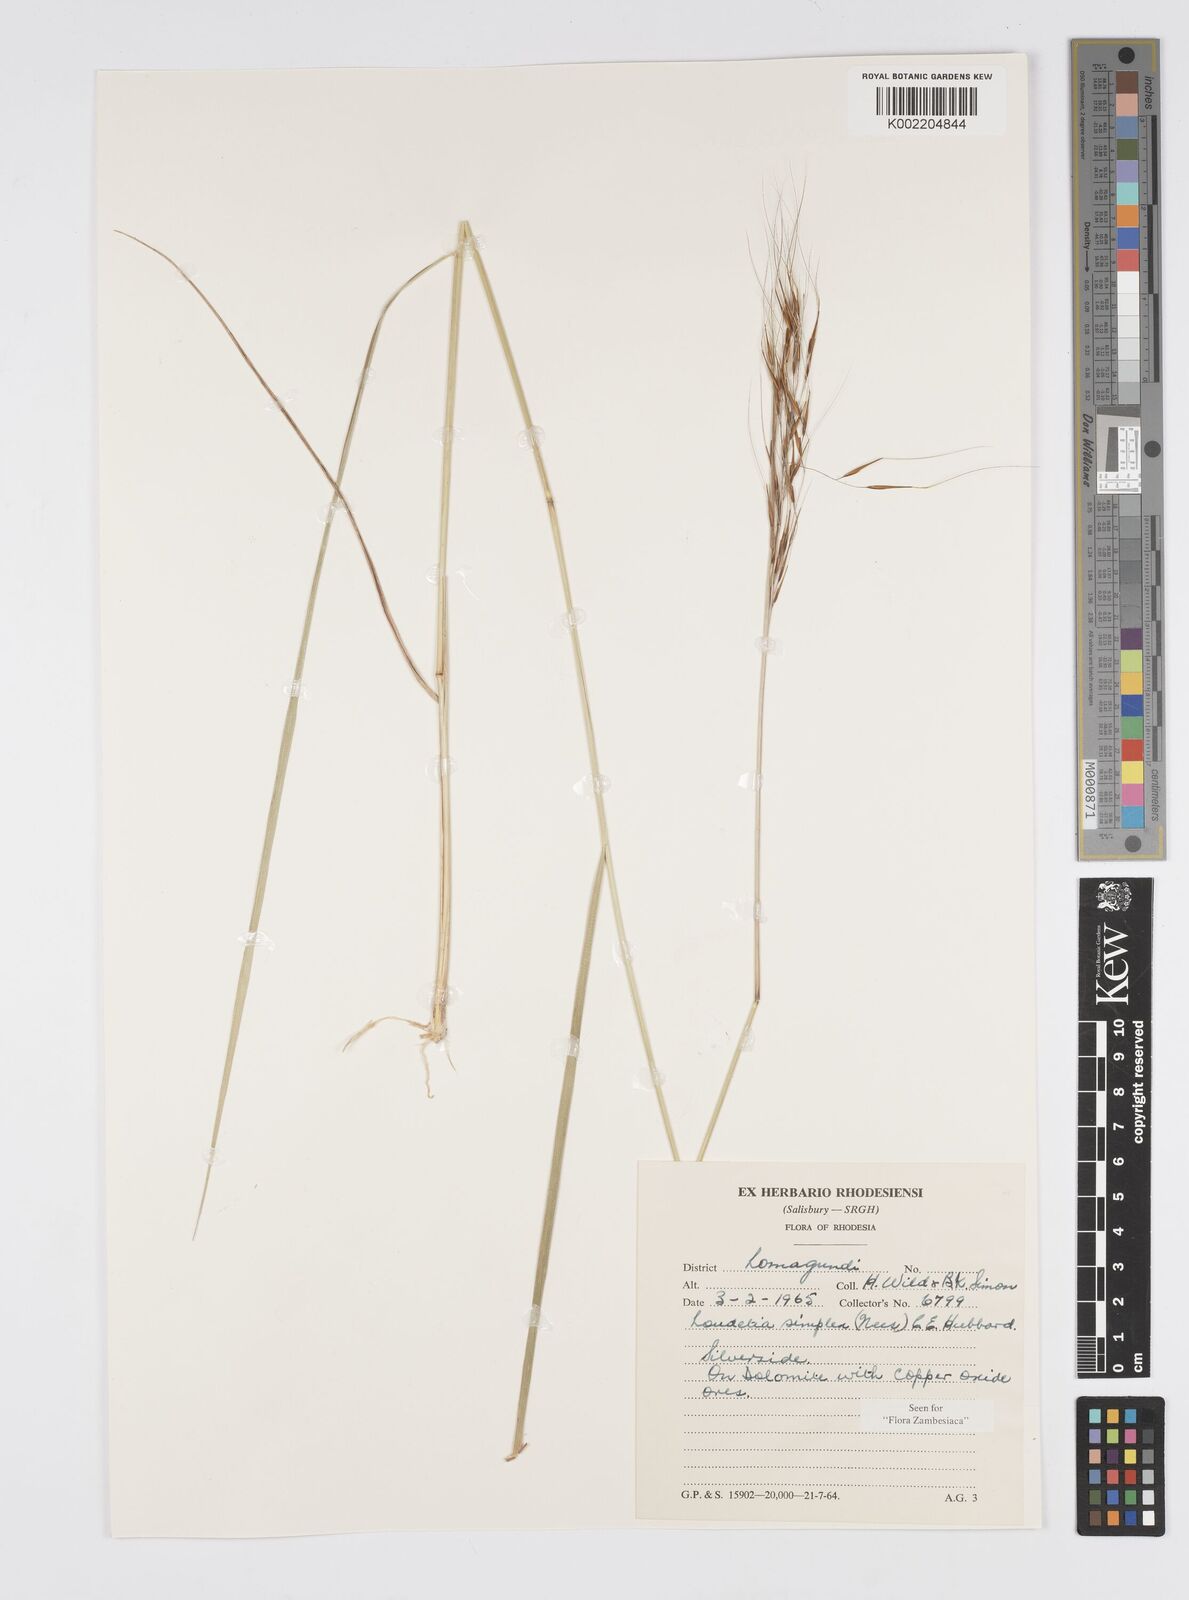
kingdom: Plantae
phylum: Tracheophyta
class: Liliopsida
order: Poales
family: Poaceae
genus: Loudetia
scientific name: Loudetia simplex
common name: Common russet grass
